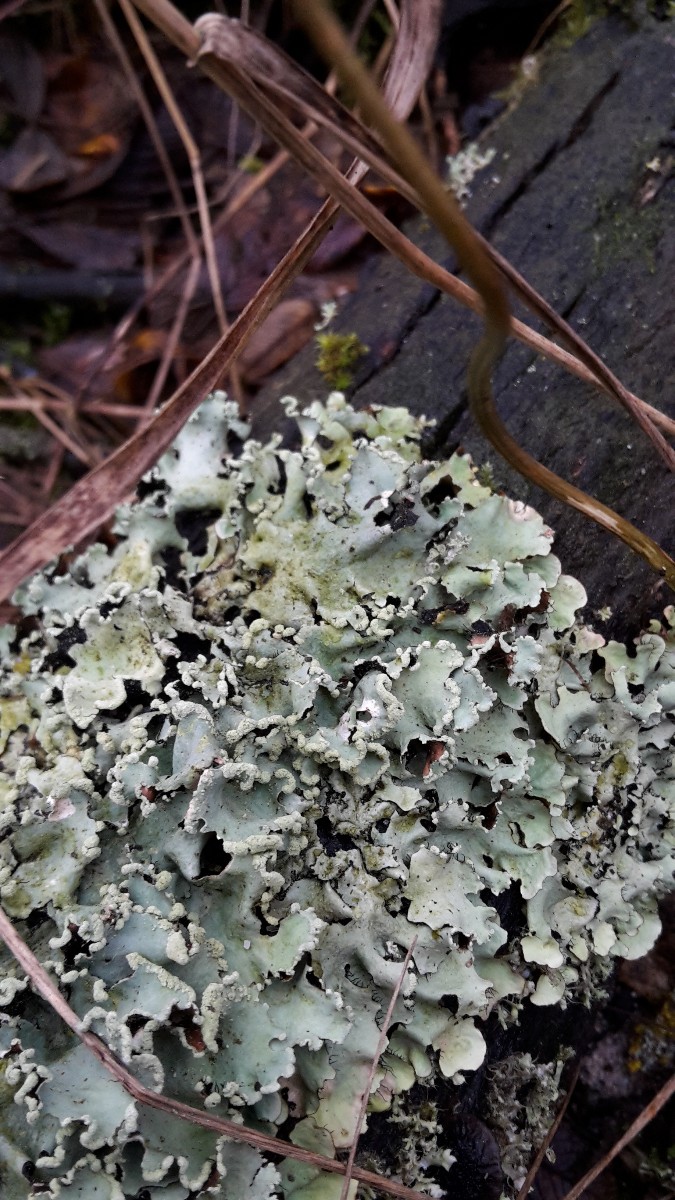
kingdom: Fungi
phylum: Ascomycota
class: Lecanoromycetes
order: Lecanorales
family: Parmeliaceae
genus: Parmotrema
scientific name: Parmotrema perlatum
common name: trådet skållav
